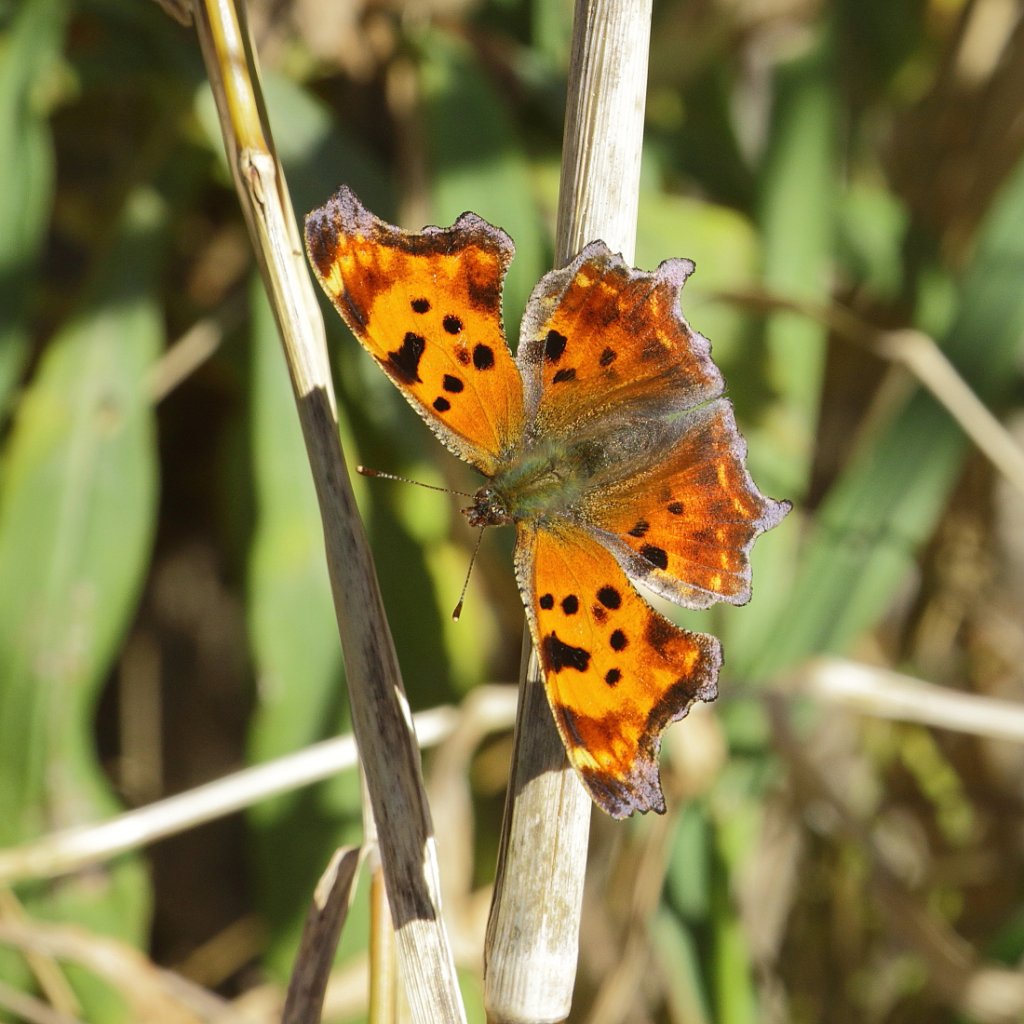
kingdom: Animalia
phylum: Arthropoda
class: Insecta
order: Lepidoptera
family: Nymphalidae
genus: Polygonia
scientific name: Polygonia comma
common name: Eastern Comma
